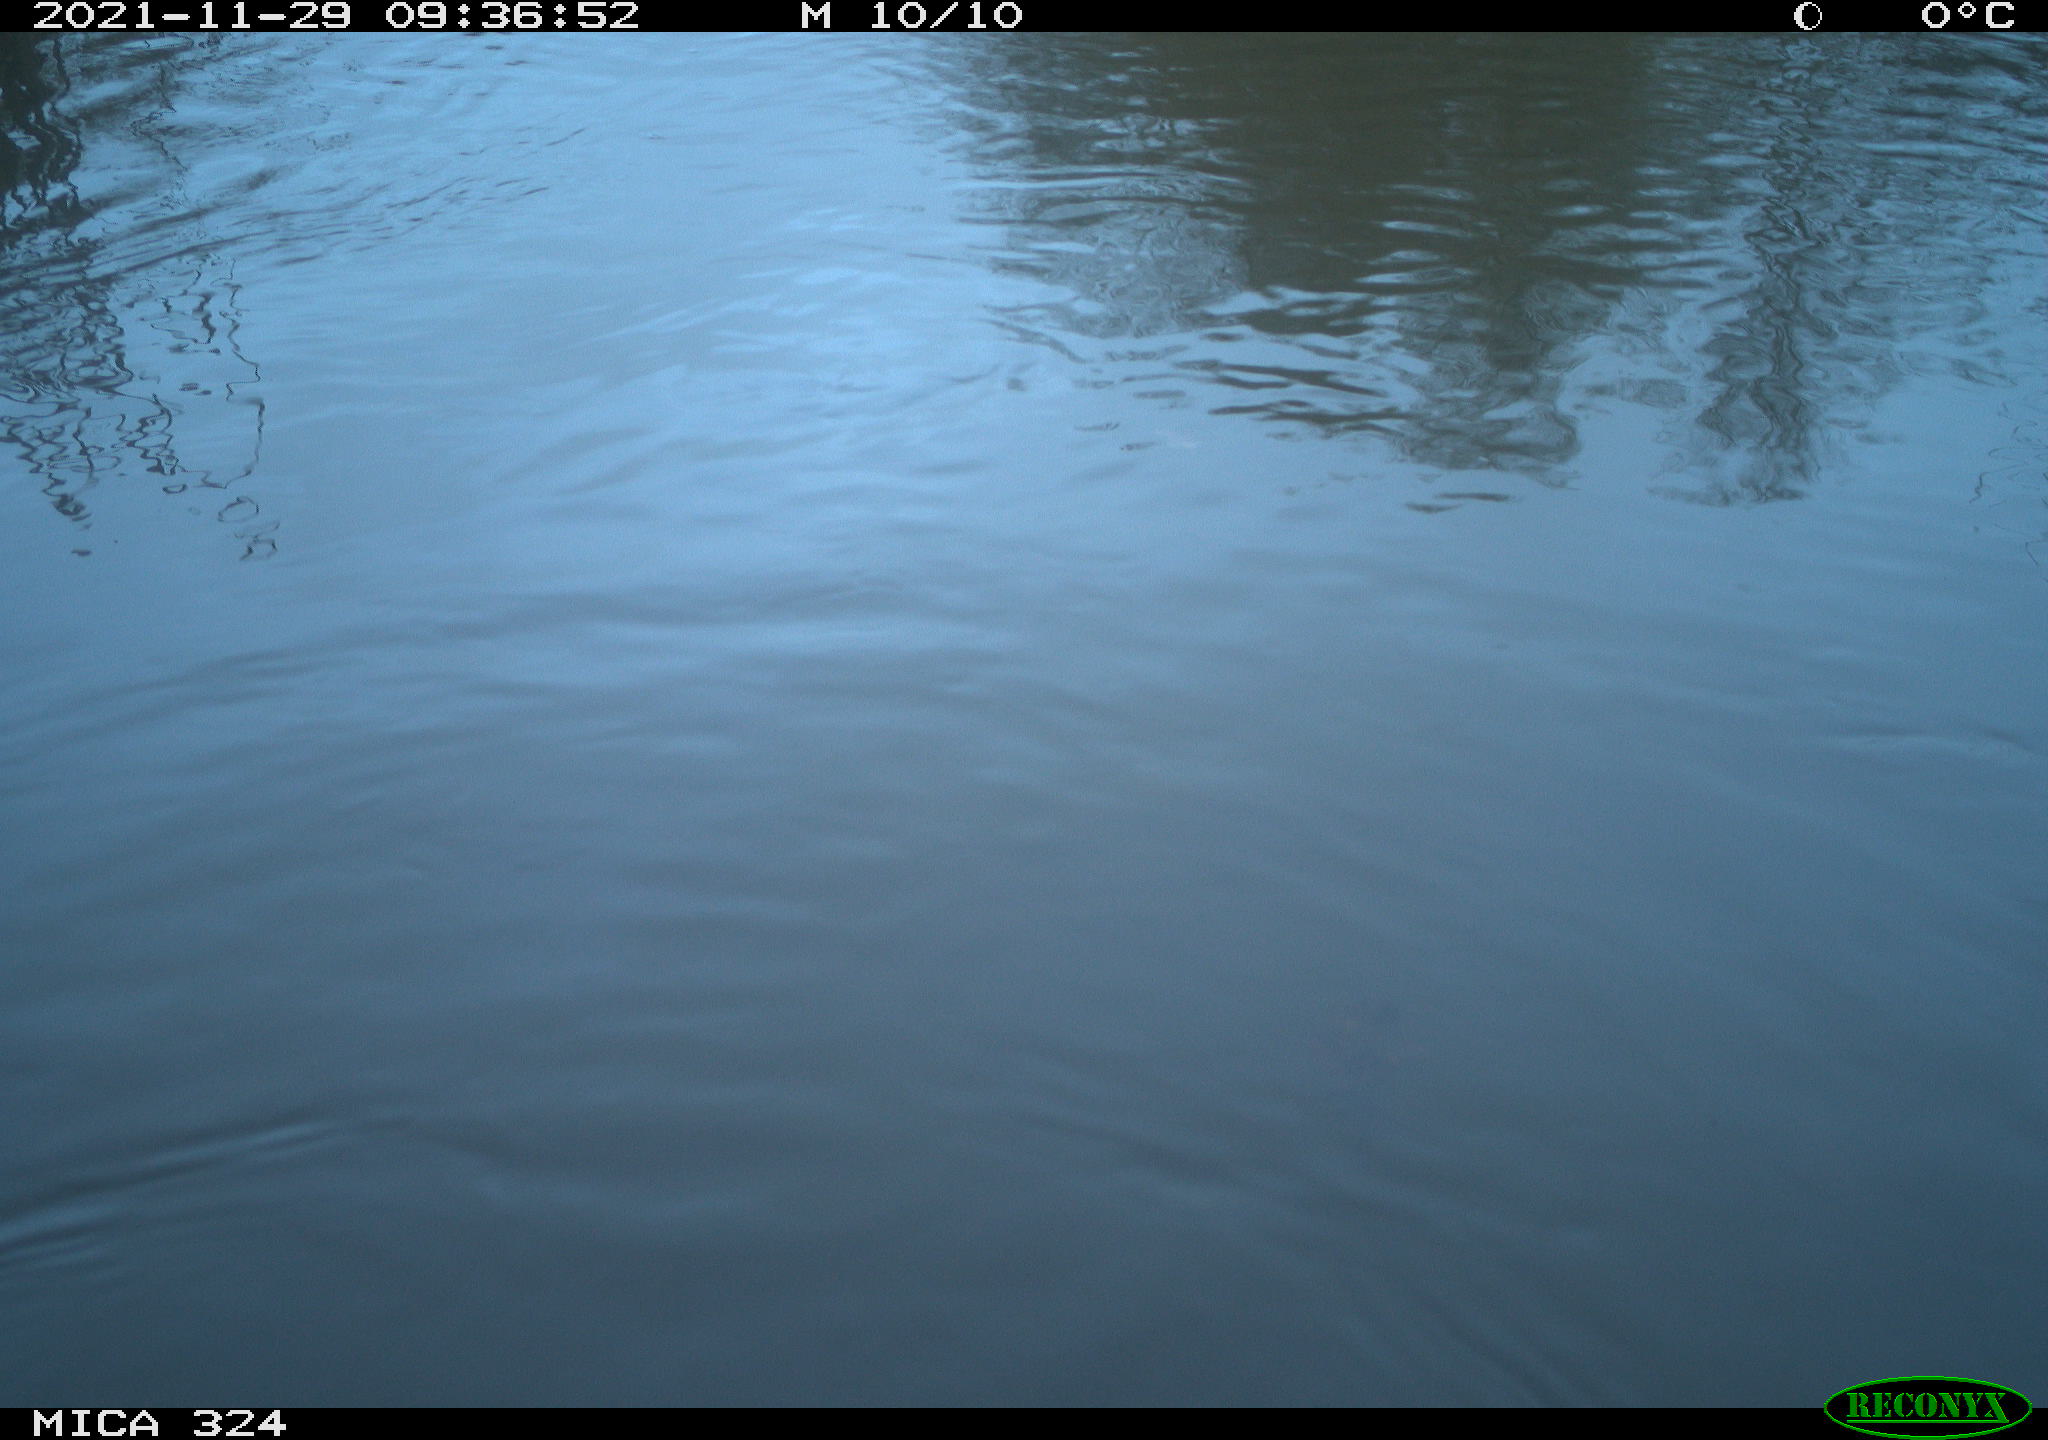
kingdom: Animalia
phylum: Chordata
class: Mammalia
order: Rodentia
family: Cricetidae
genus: Ondatra
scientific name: Ondatra zibethicus
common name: Muskrat
